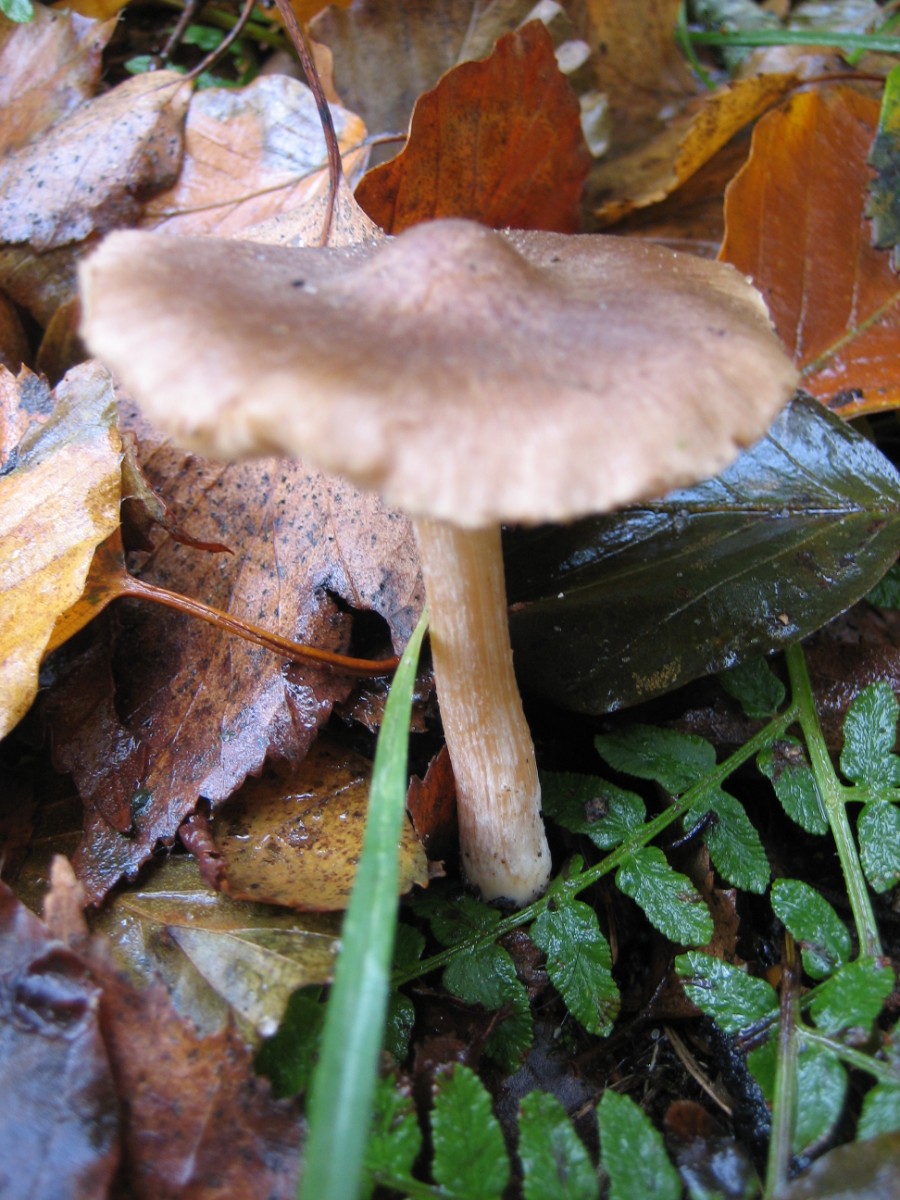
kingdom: Fungi
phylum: Basidiomycota
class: Agaricomycetes
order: Agaricales
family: Inocybaceae
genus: Inocybe
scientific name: Inocybe
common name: trævlhat
